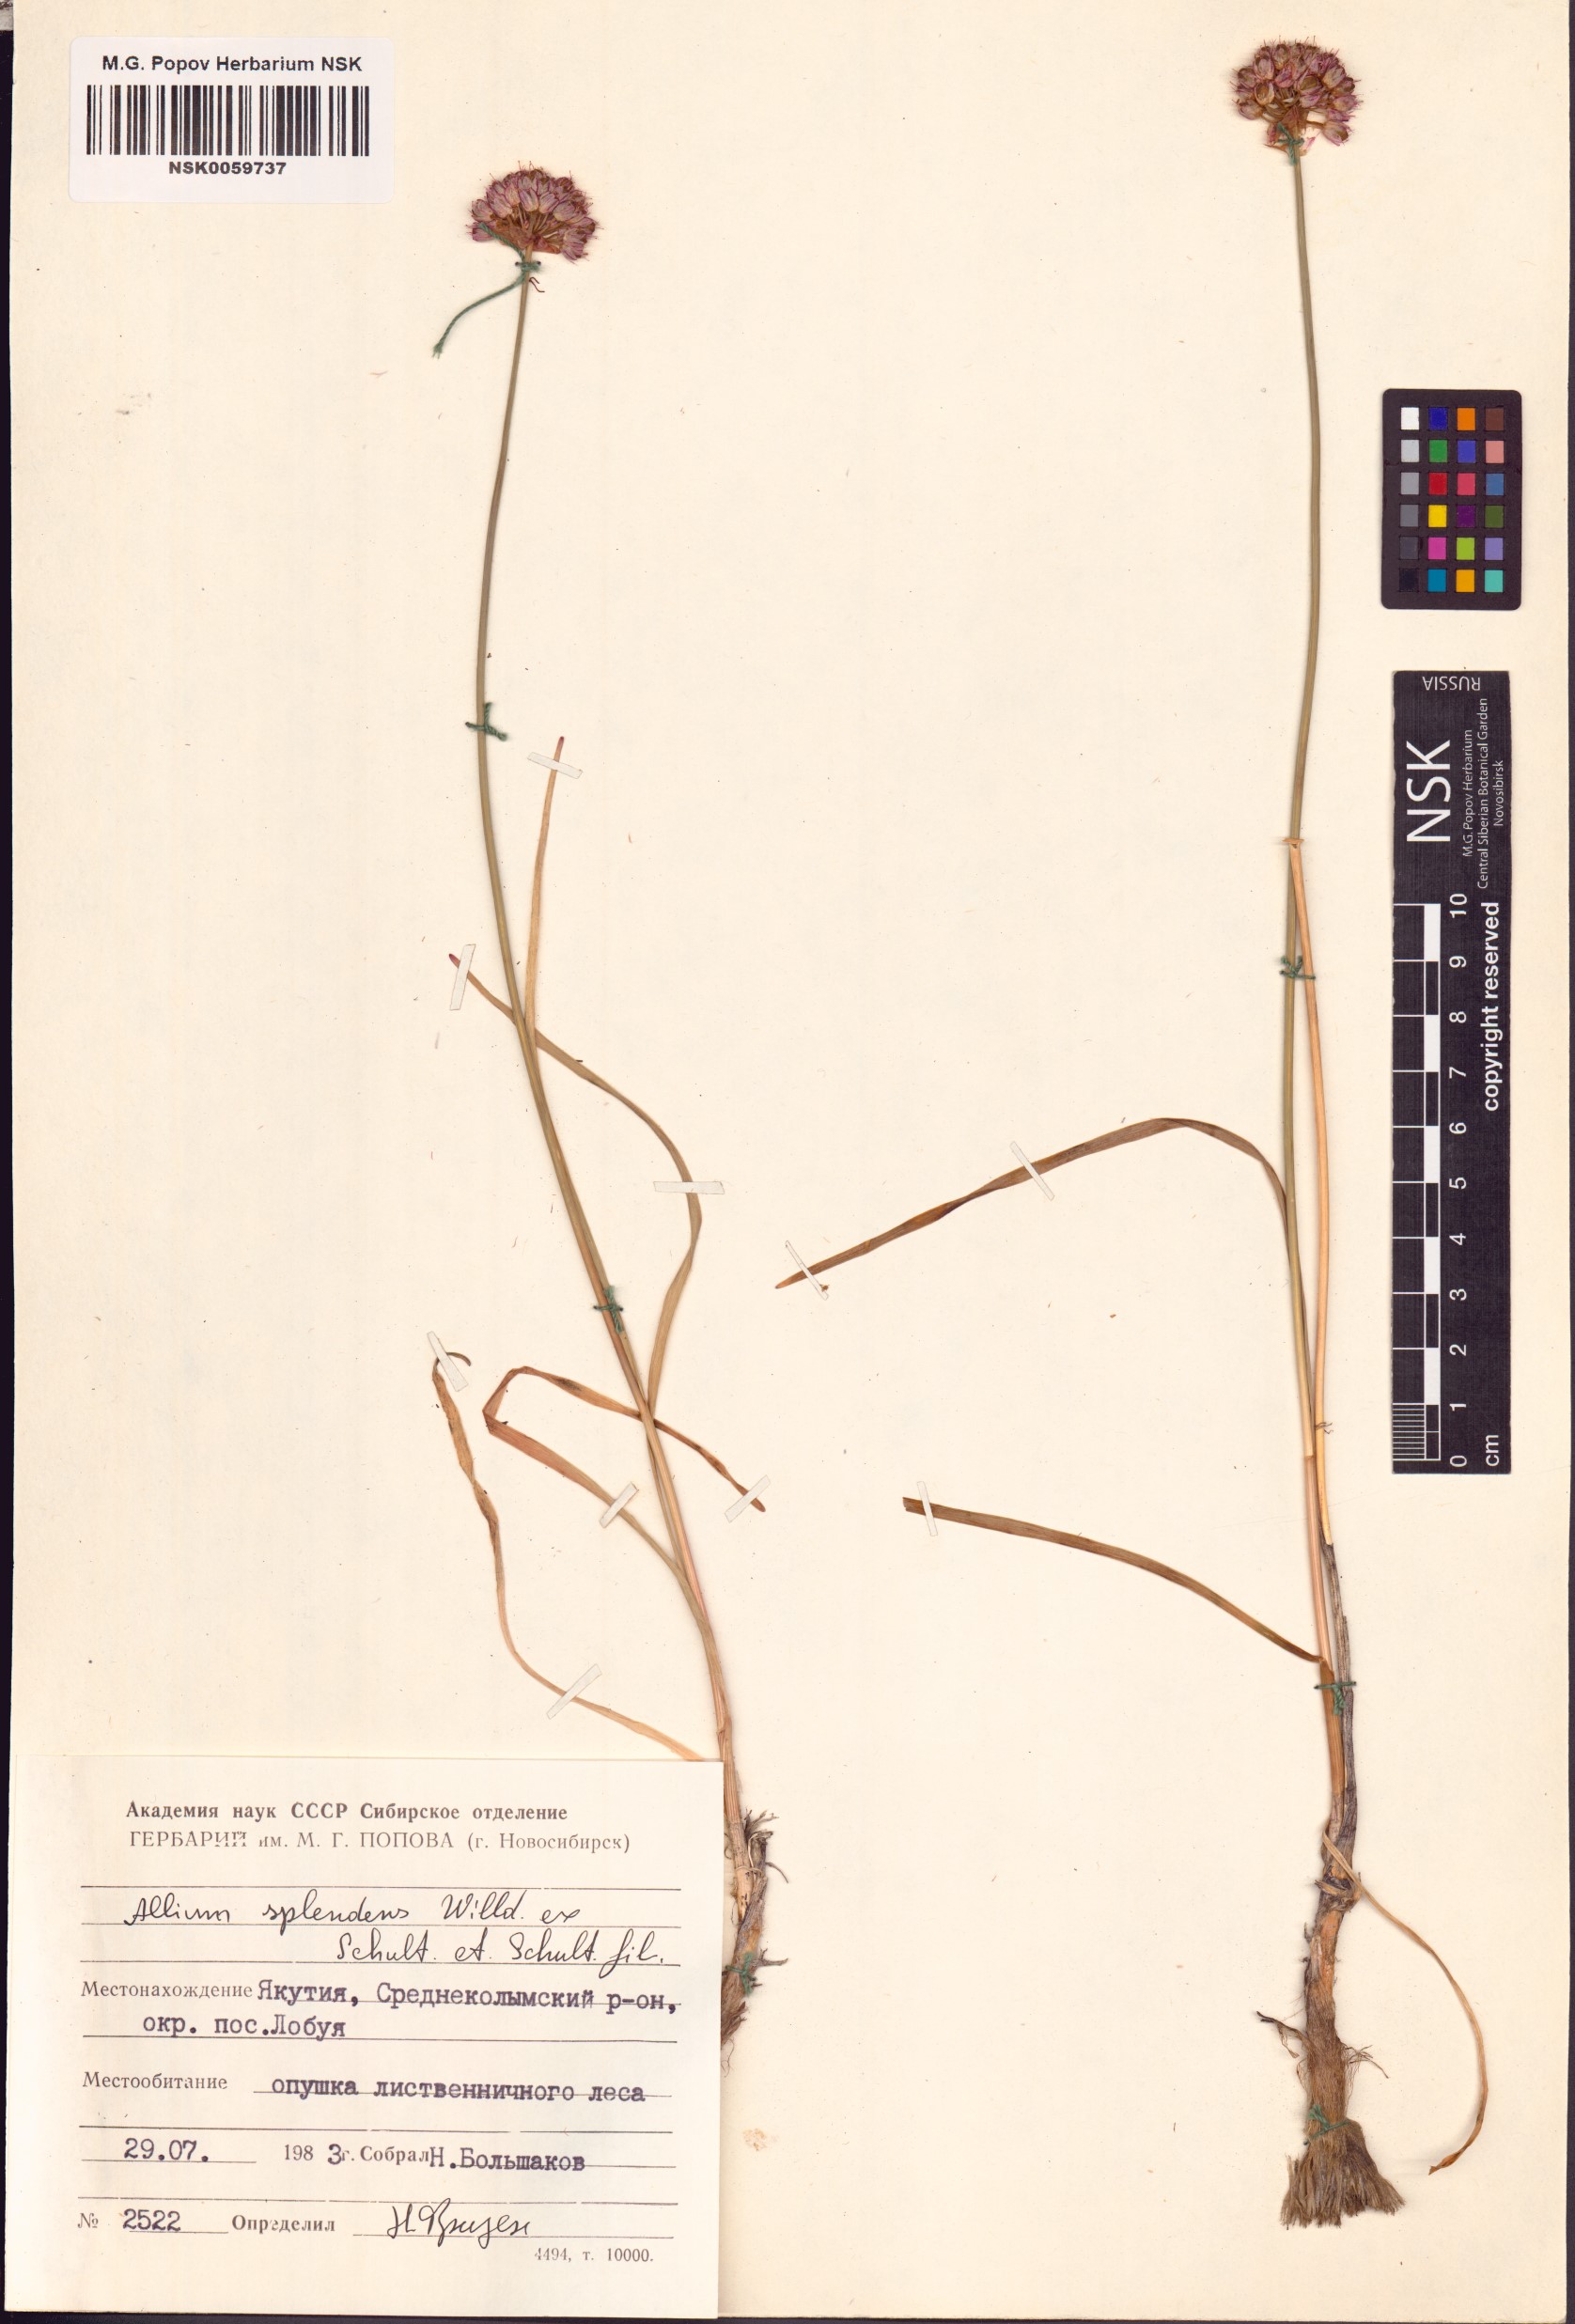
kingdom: Plantae
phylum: Tracheophyta
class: Liliopsida
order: Asparagales
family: Amaryllidaceae
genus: Allium
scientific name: Allium splendens
